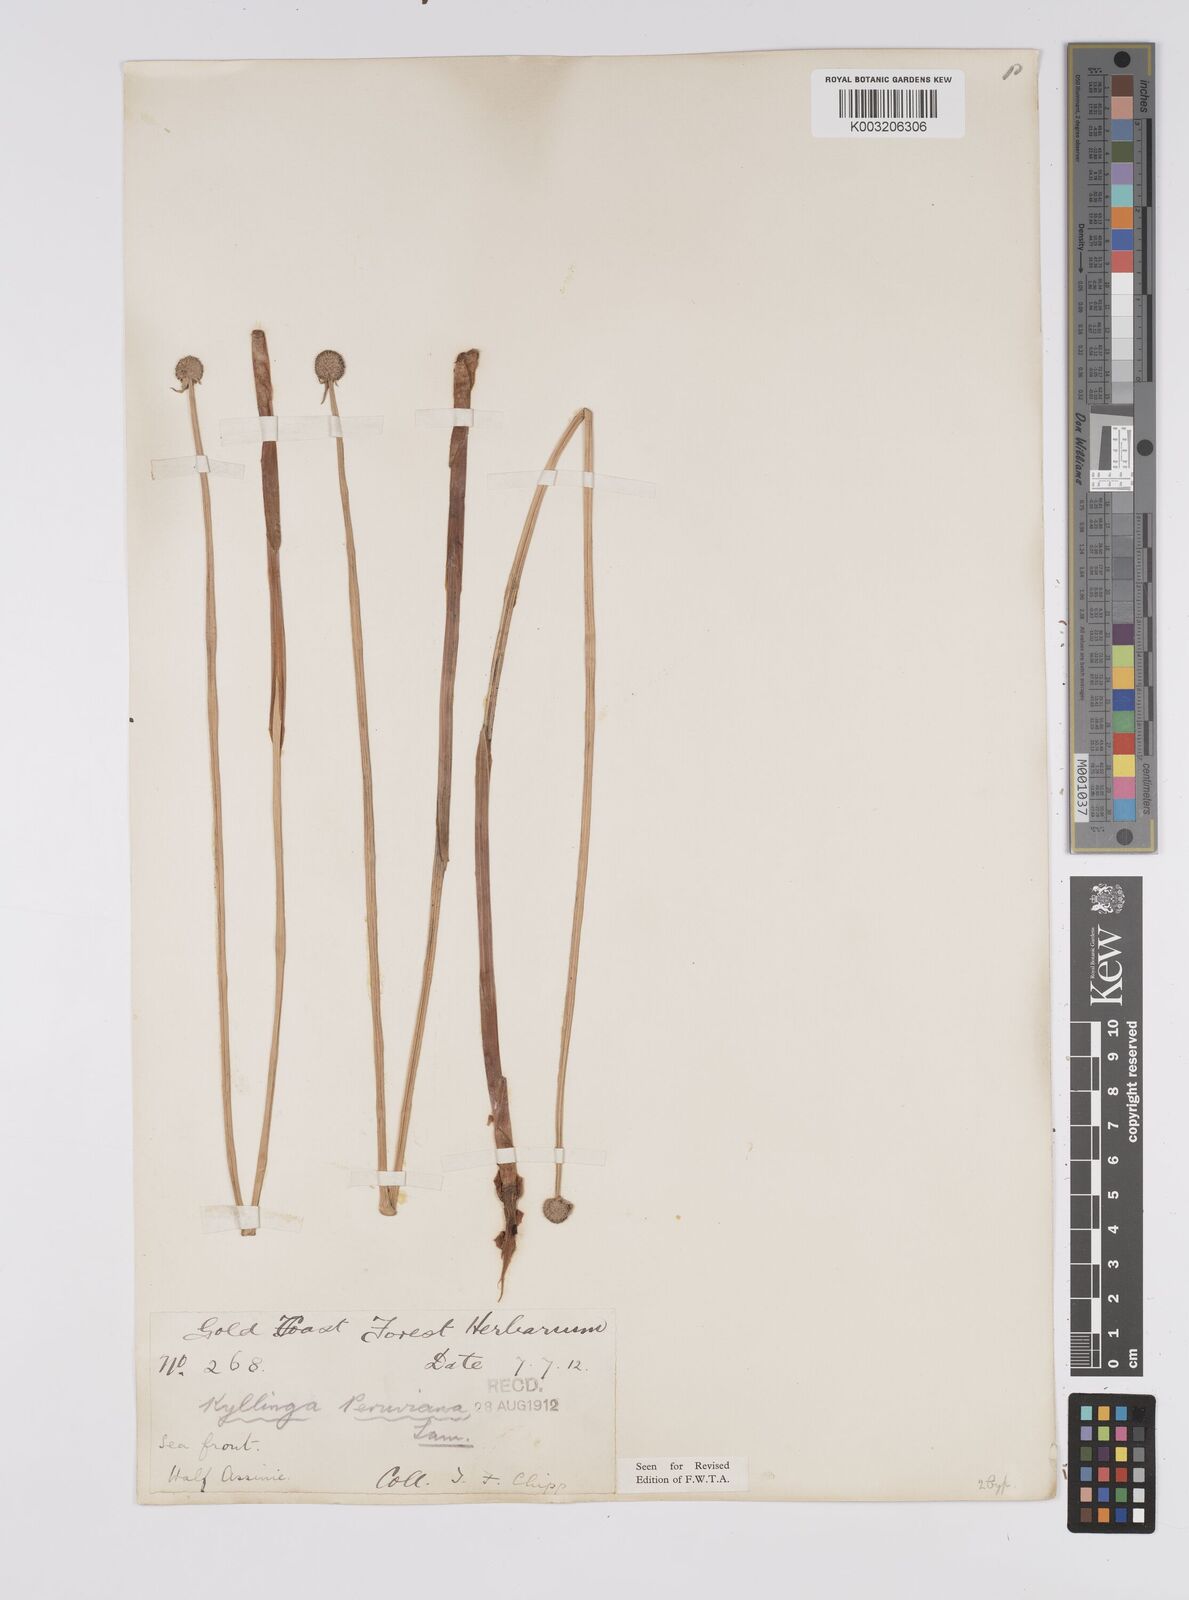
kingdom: Plantae
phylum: Tracheophyta
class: Liliopsida
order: Poales
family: Cyperaceae
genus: Cyperus
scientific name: Cyperus obtusatus
